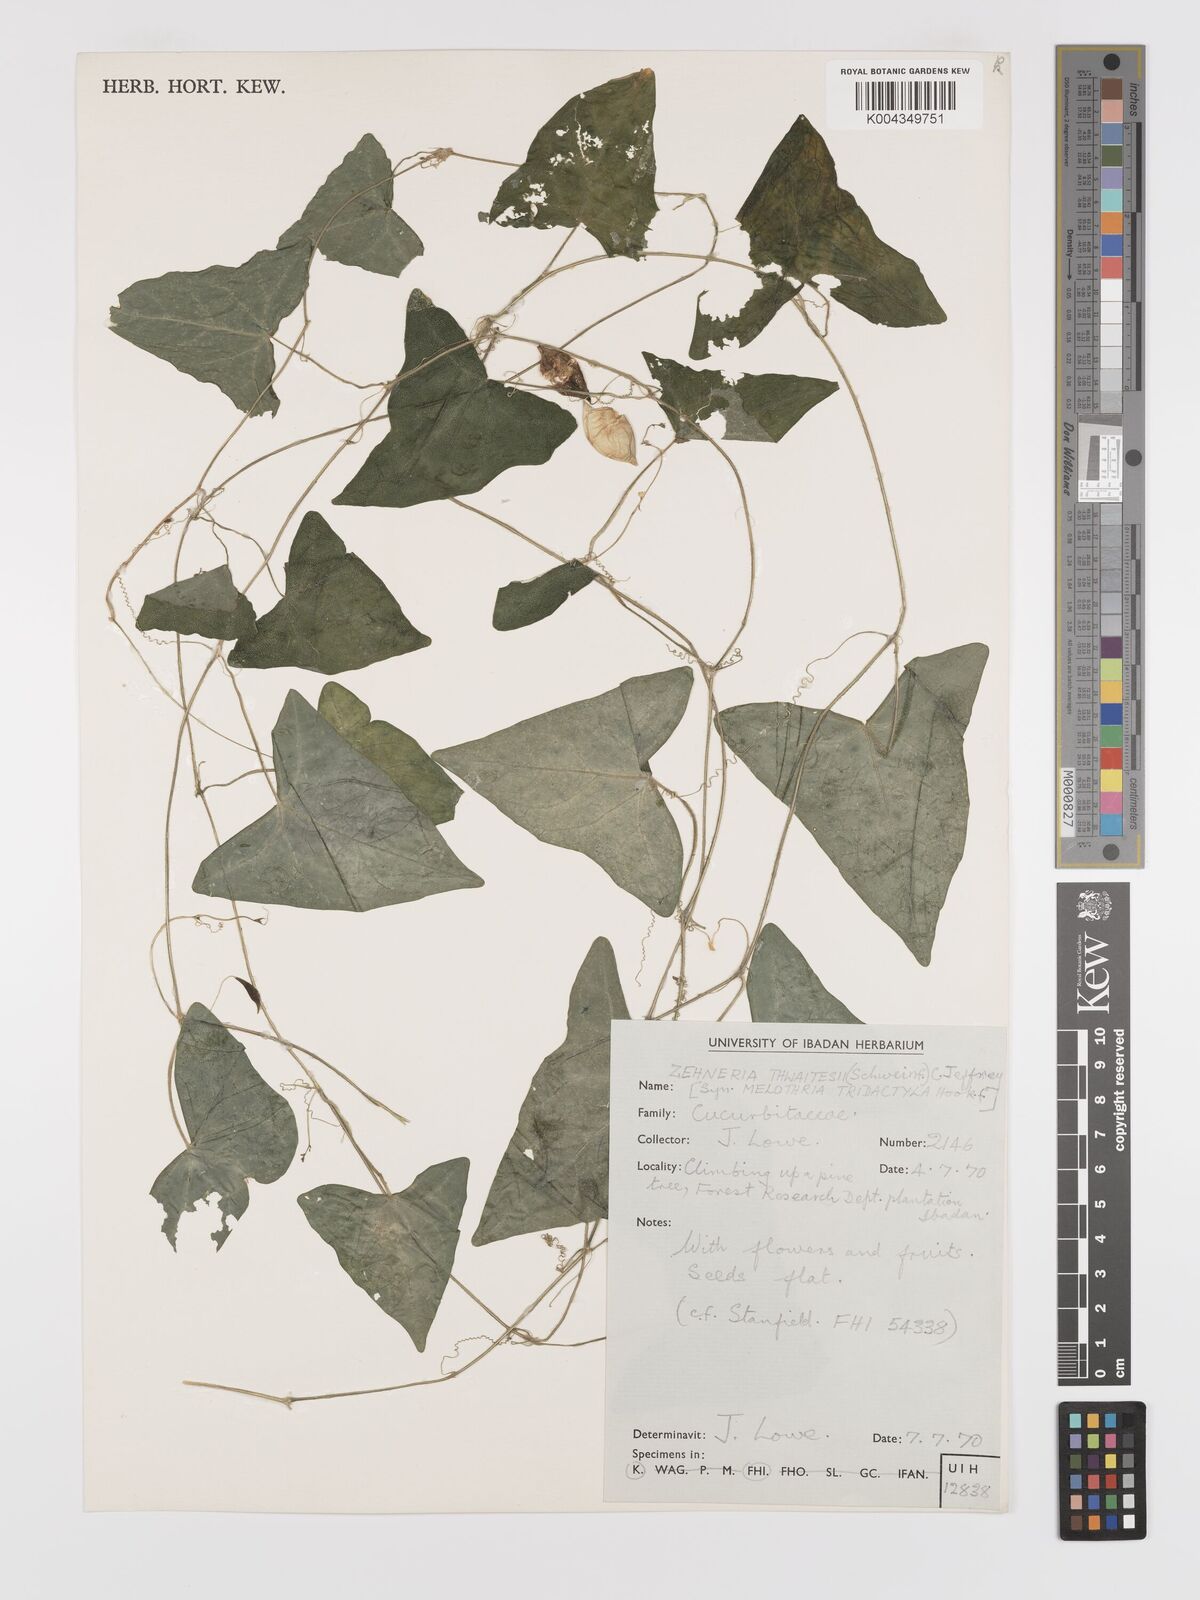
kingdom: Plantae
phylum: Tracheophyta
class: Magnoliopsida
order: Cucurbitales
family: Cucurbitaceae
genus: Zehneria
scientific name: Zehneria thwaitesii
